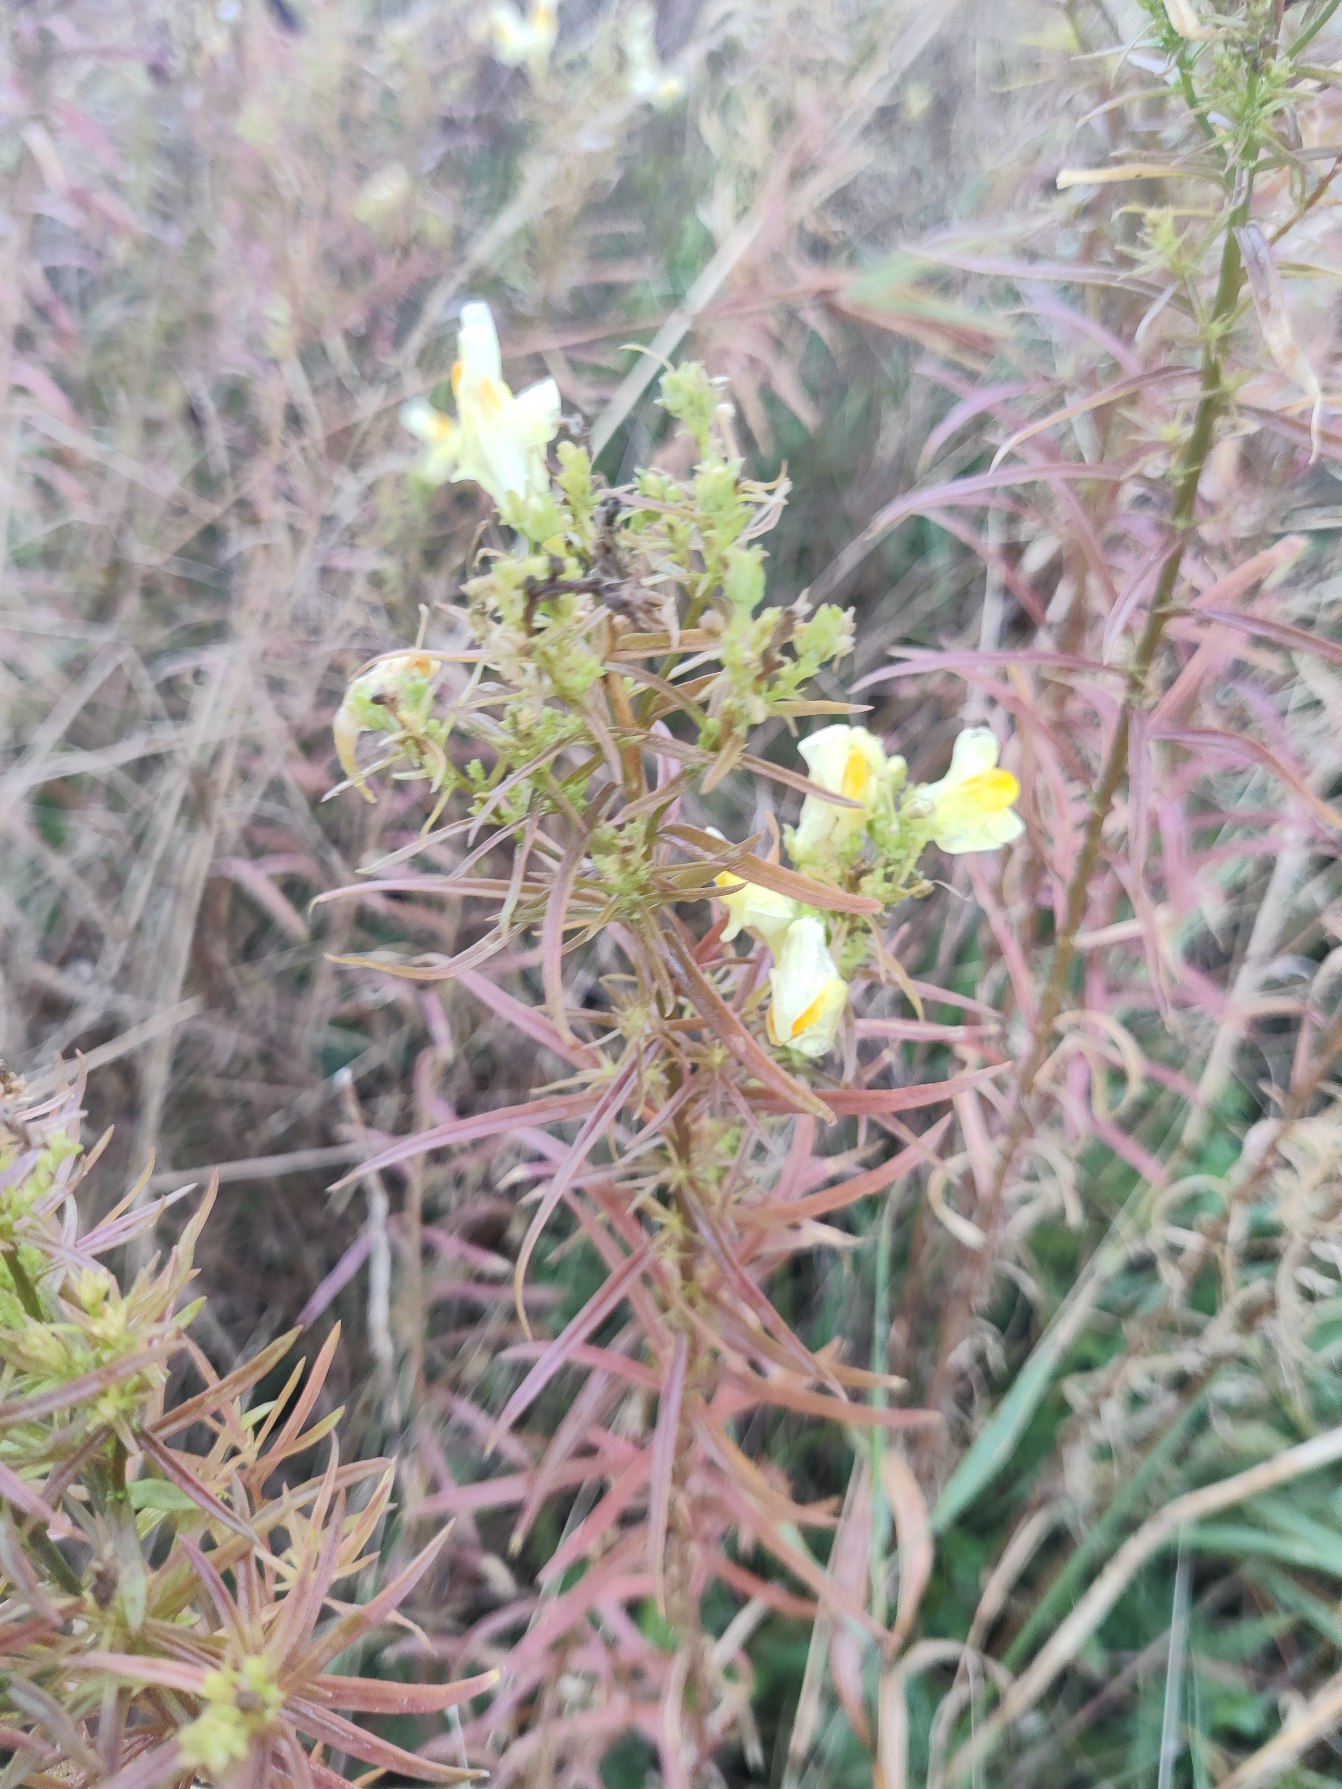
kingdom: Plantae
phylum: Tracheophyta
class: Magnoliopsida
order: Lamiales
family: Plantaginaceae
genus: Linaria
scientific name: Linaria vulgaris
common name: Almindelig torskemund
